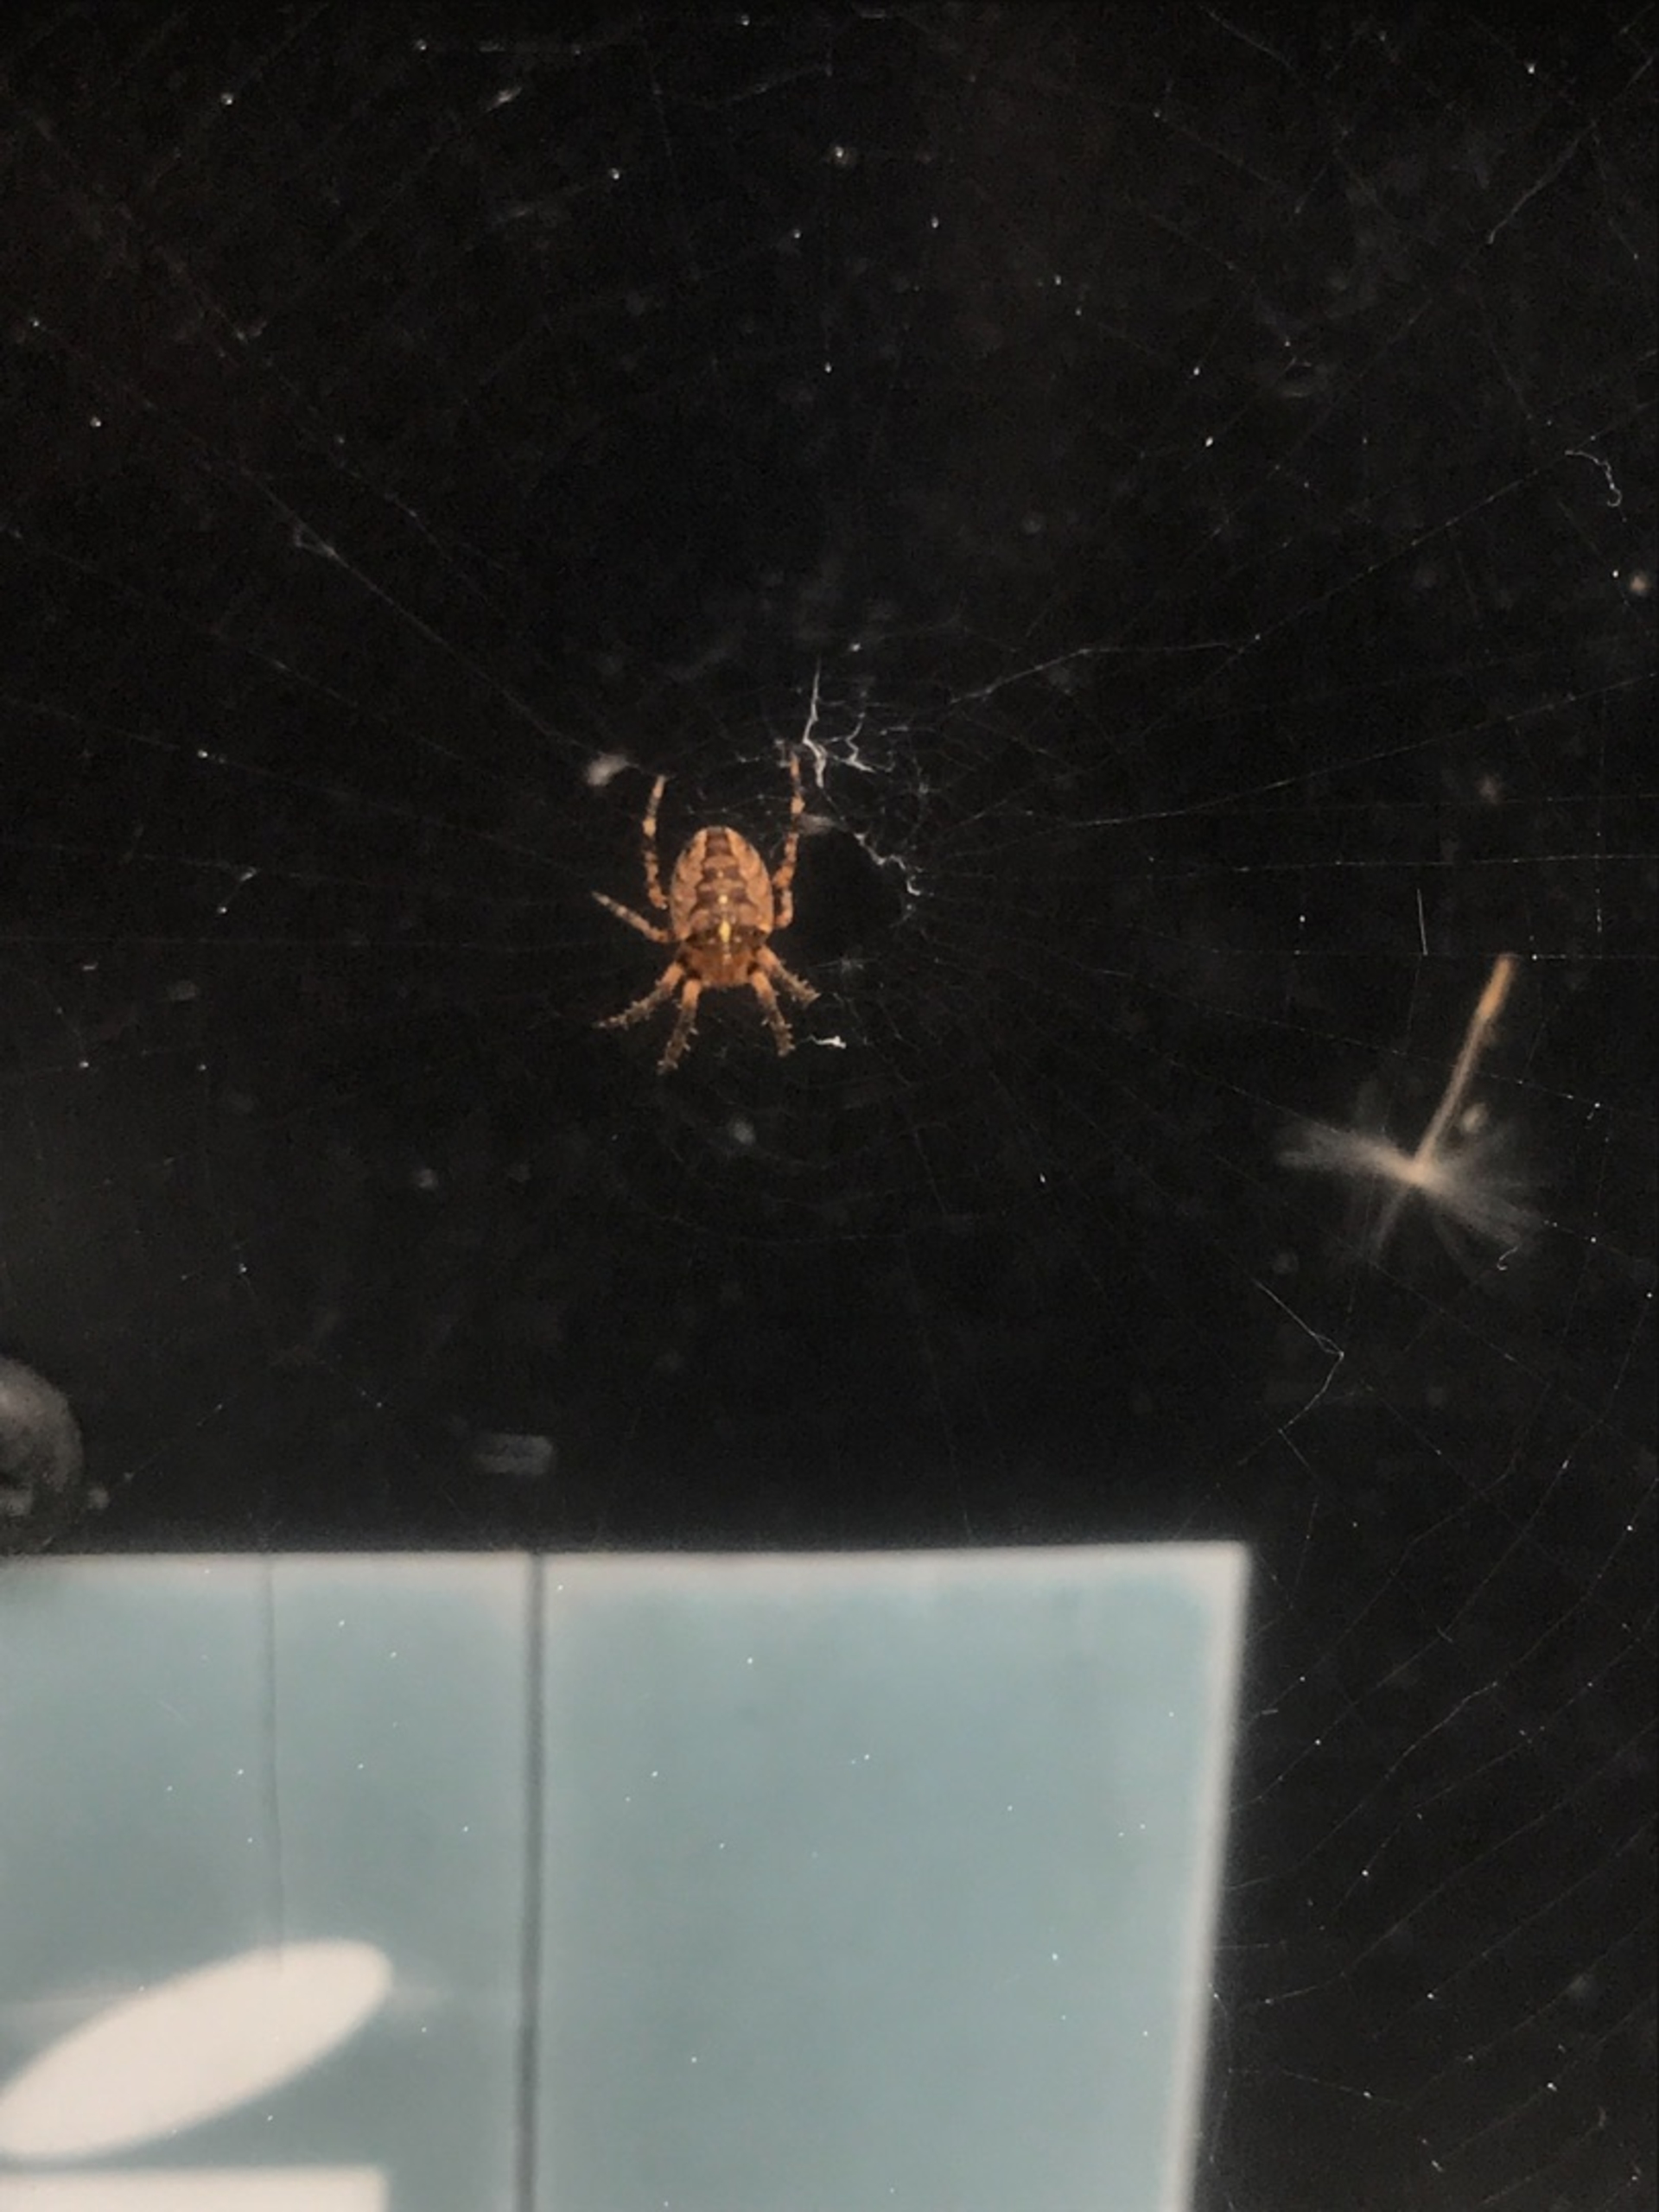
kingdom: Animalia
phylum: Arthropoda
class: Arachnida
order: Araneae
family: Araneidae
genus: Araneus
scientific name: Araneus diadematus
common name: Korsedderkop
